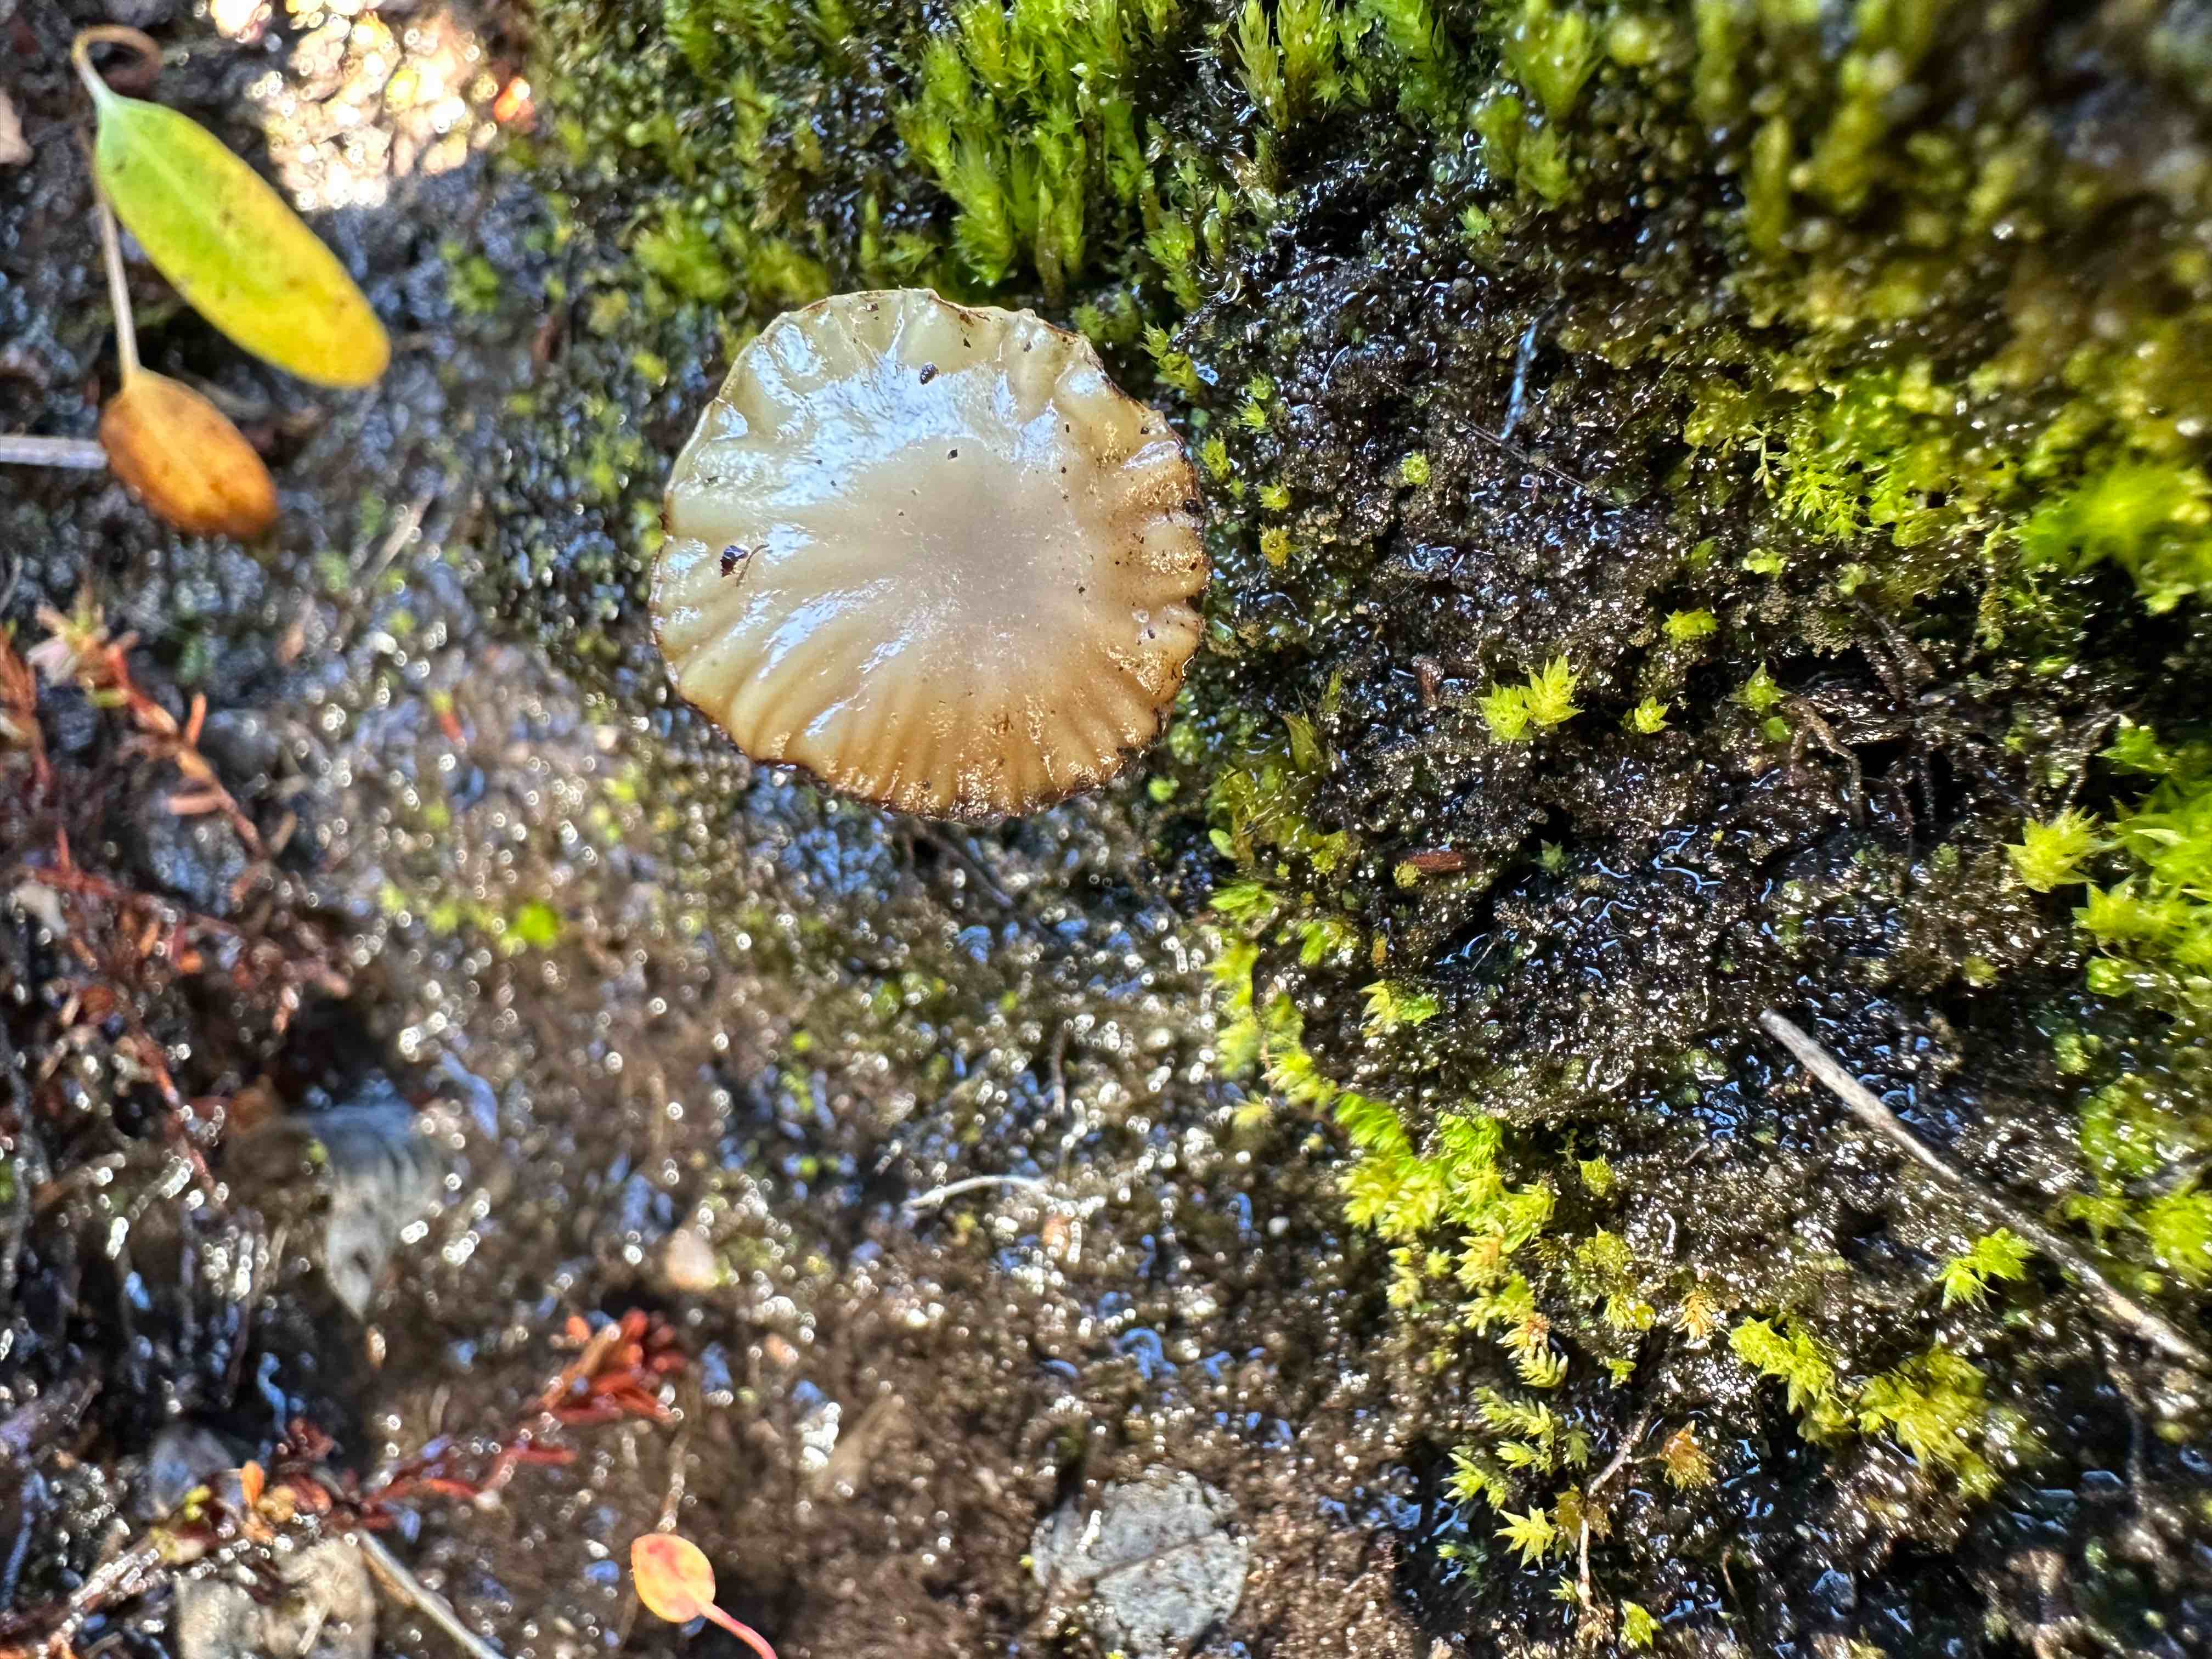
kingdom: Fungi
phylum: Basidiomycota
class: Agaricomycetes
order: Agaricales
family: Hygrophoraceae
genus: Lichenomphalia
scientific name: Lichenomphalia alpina
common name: fjeld-lavhat
